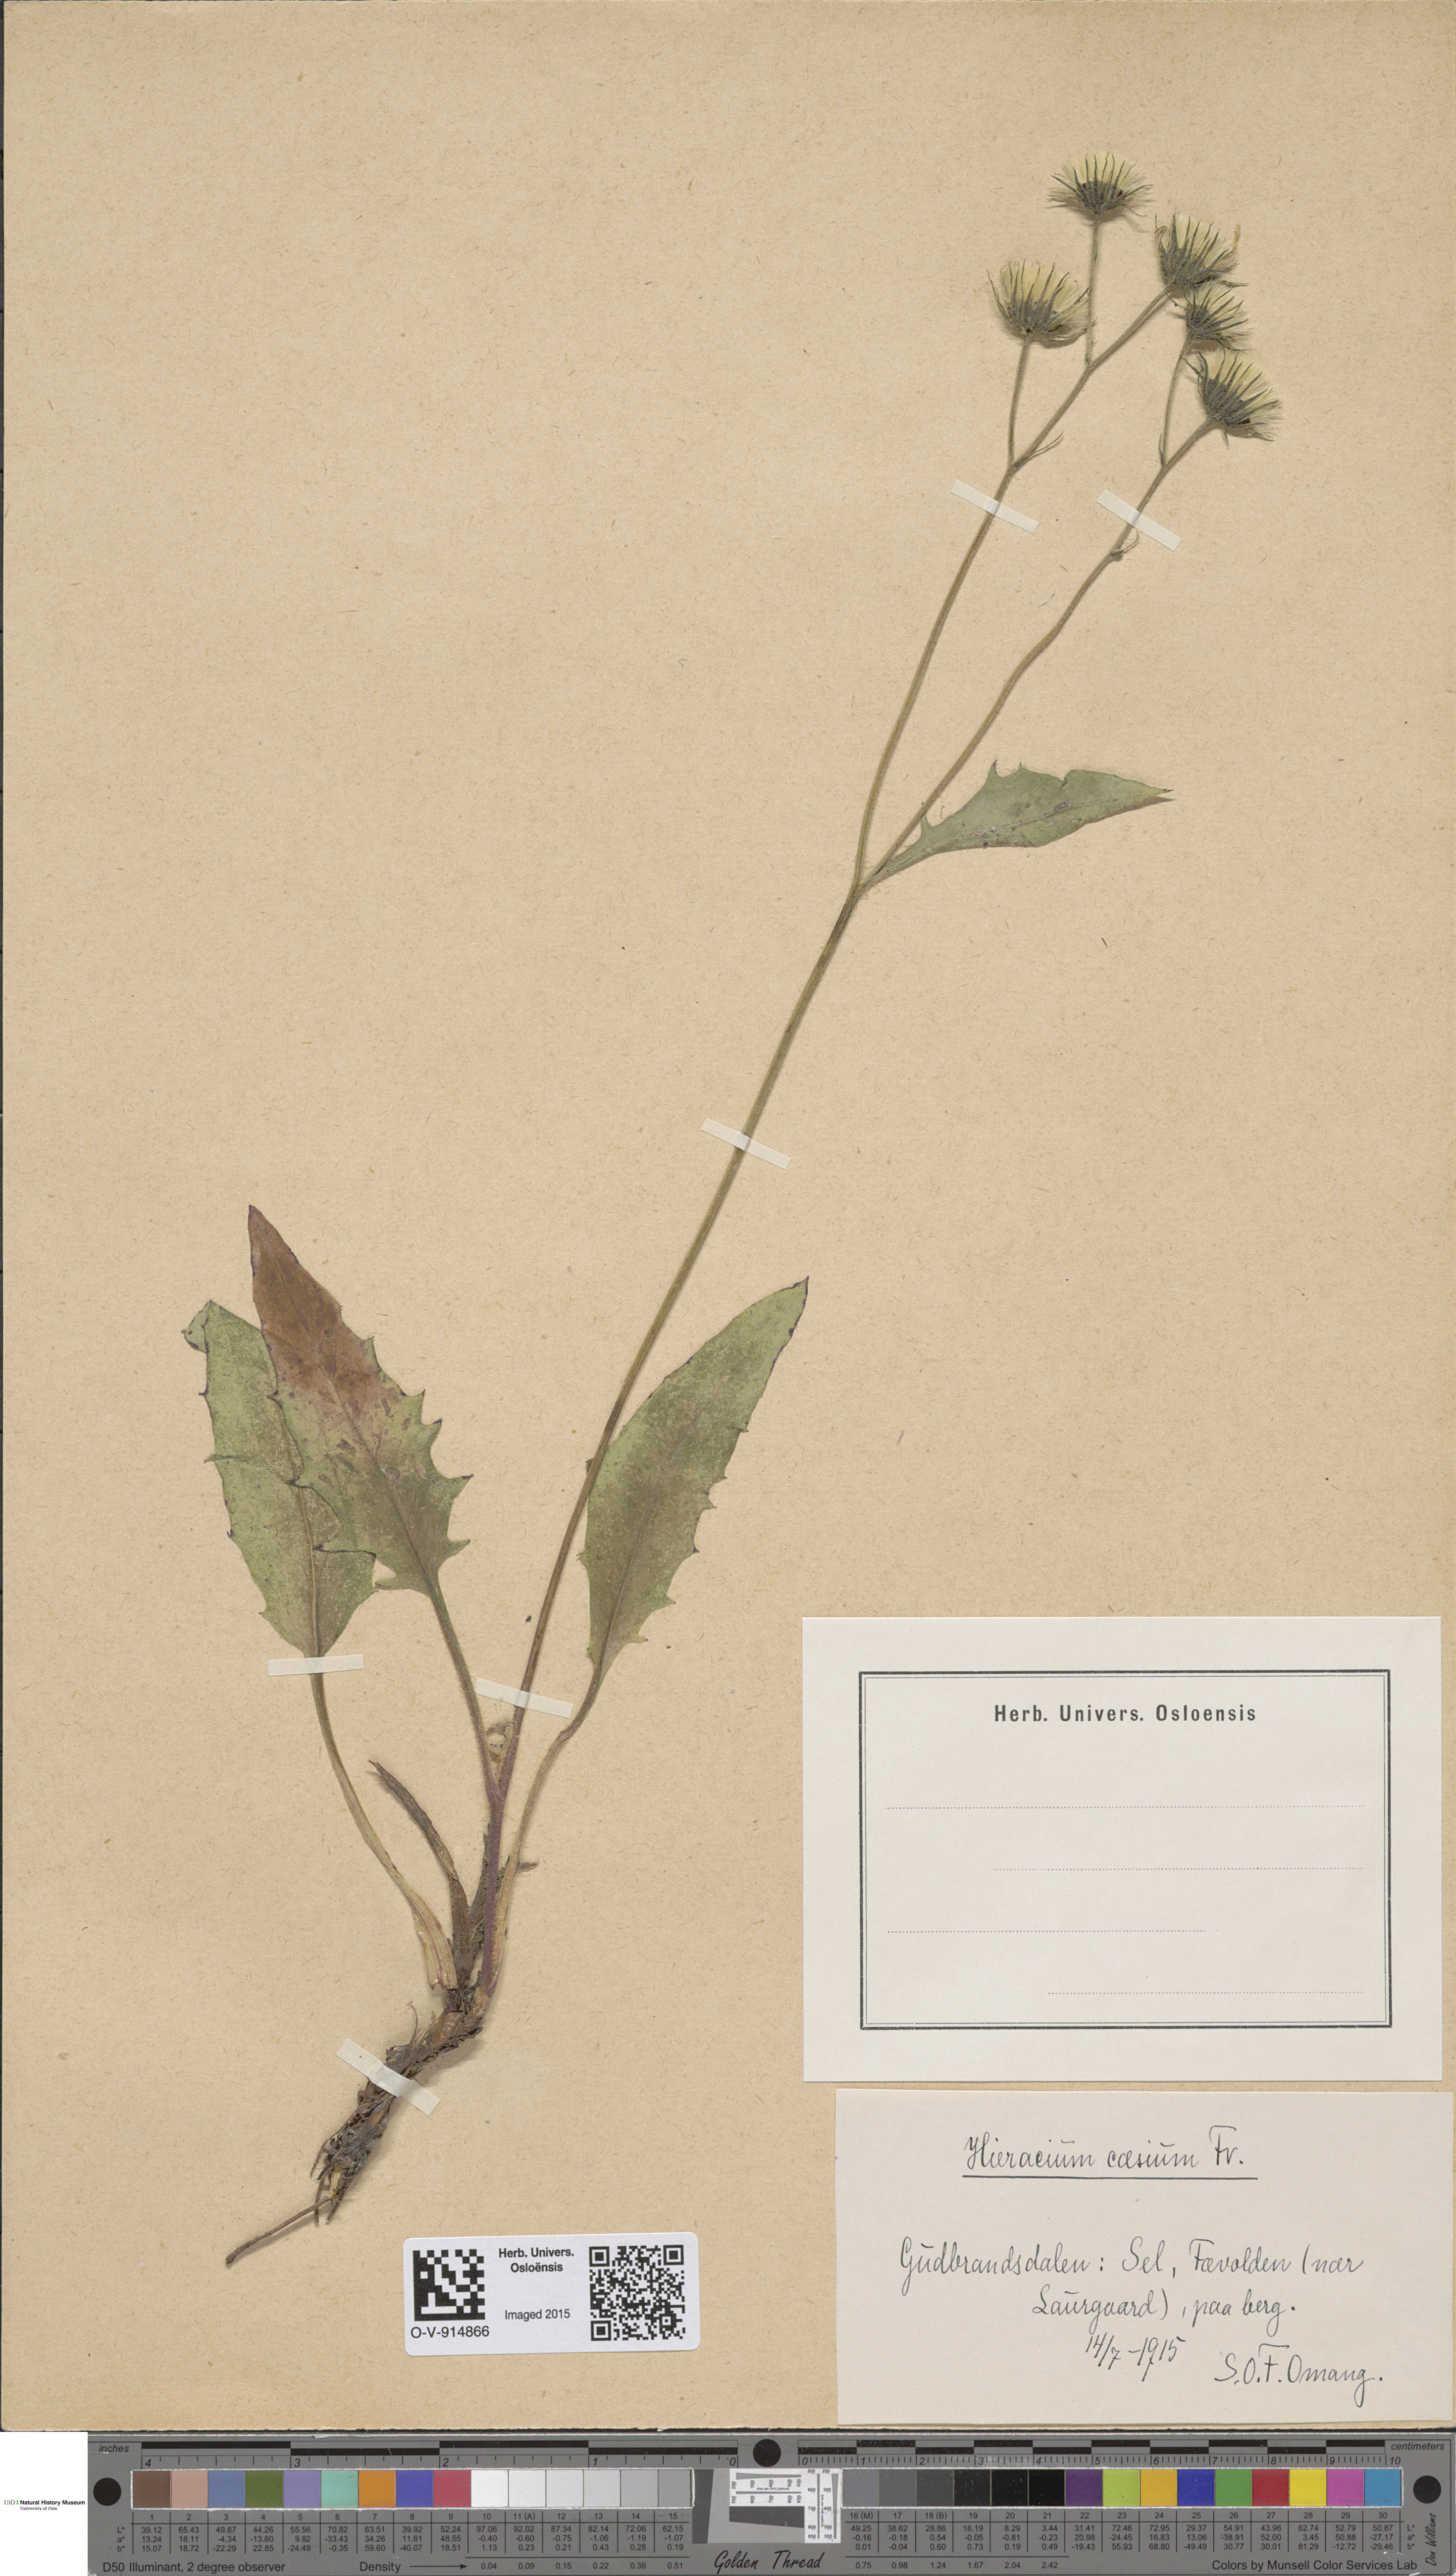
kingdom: Plantae
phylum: Tracheophyta
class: Magnoliopsida
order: Asterales
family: Asteraceae
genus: Hieracium
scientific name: Hieracium caesium
